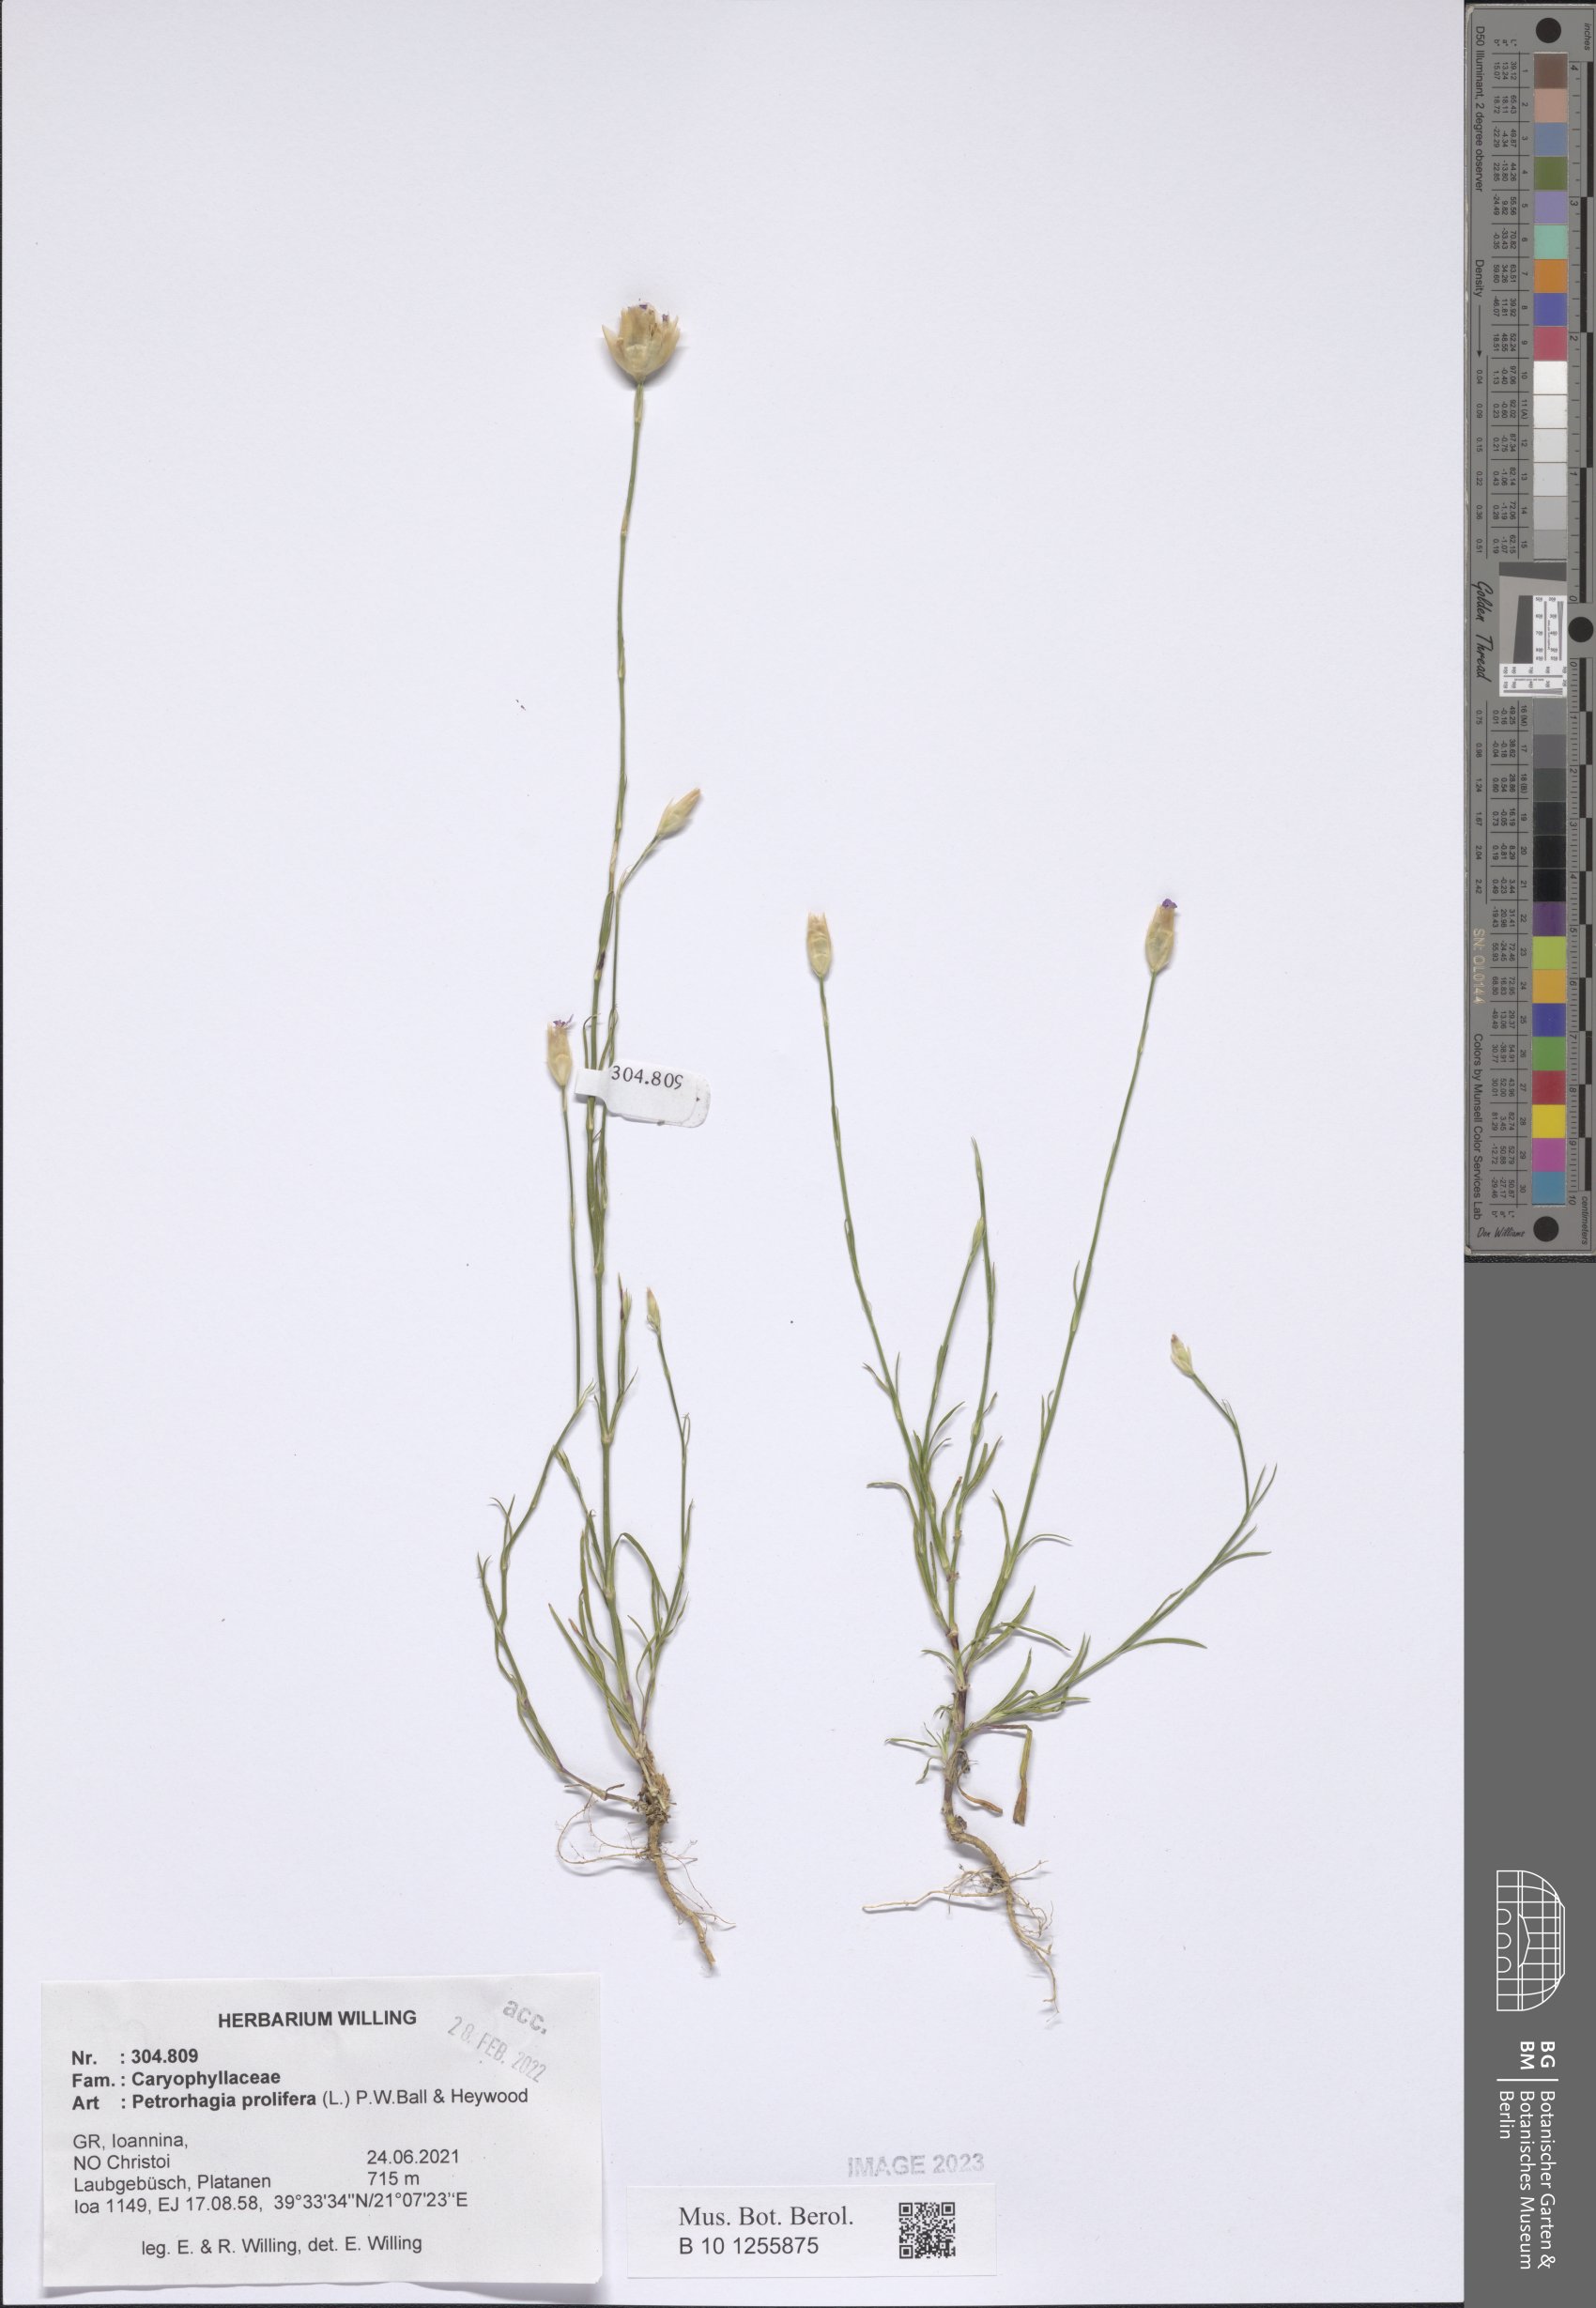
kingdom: Plantae
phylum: Tracheophyta
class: Magnoliopsida
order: Caryophyllales
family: Caryophyllaceae
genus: Petrorhagia
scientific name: Petrorhagia prolifera
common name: Proliferous pink
